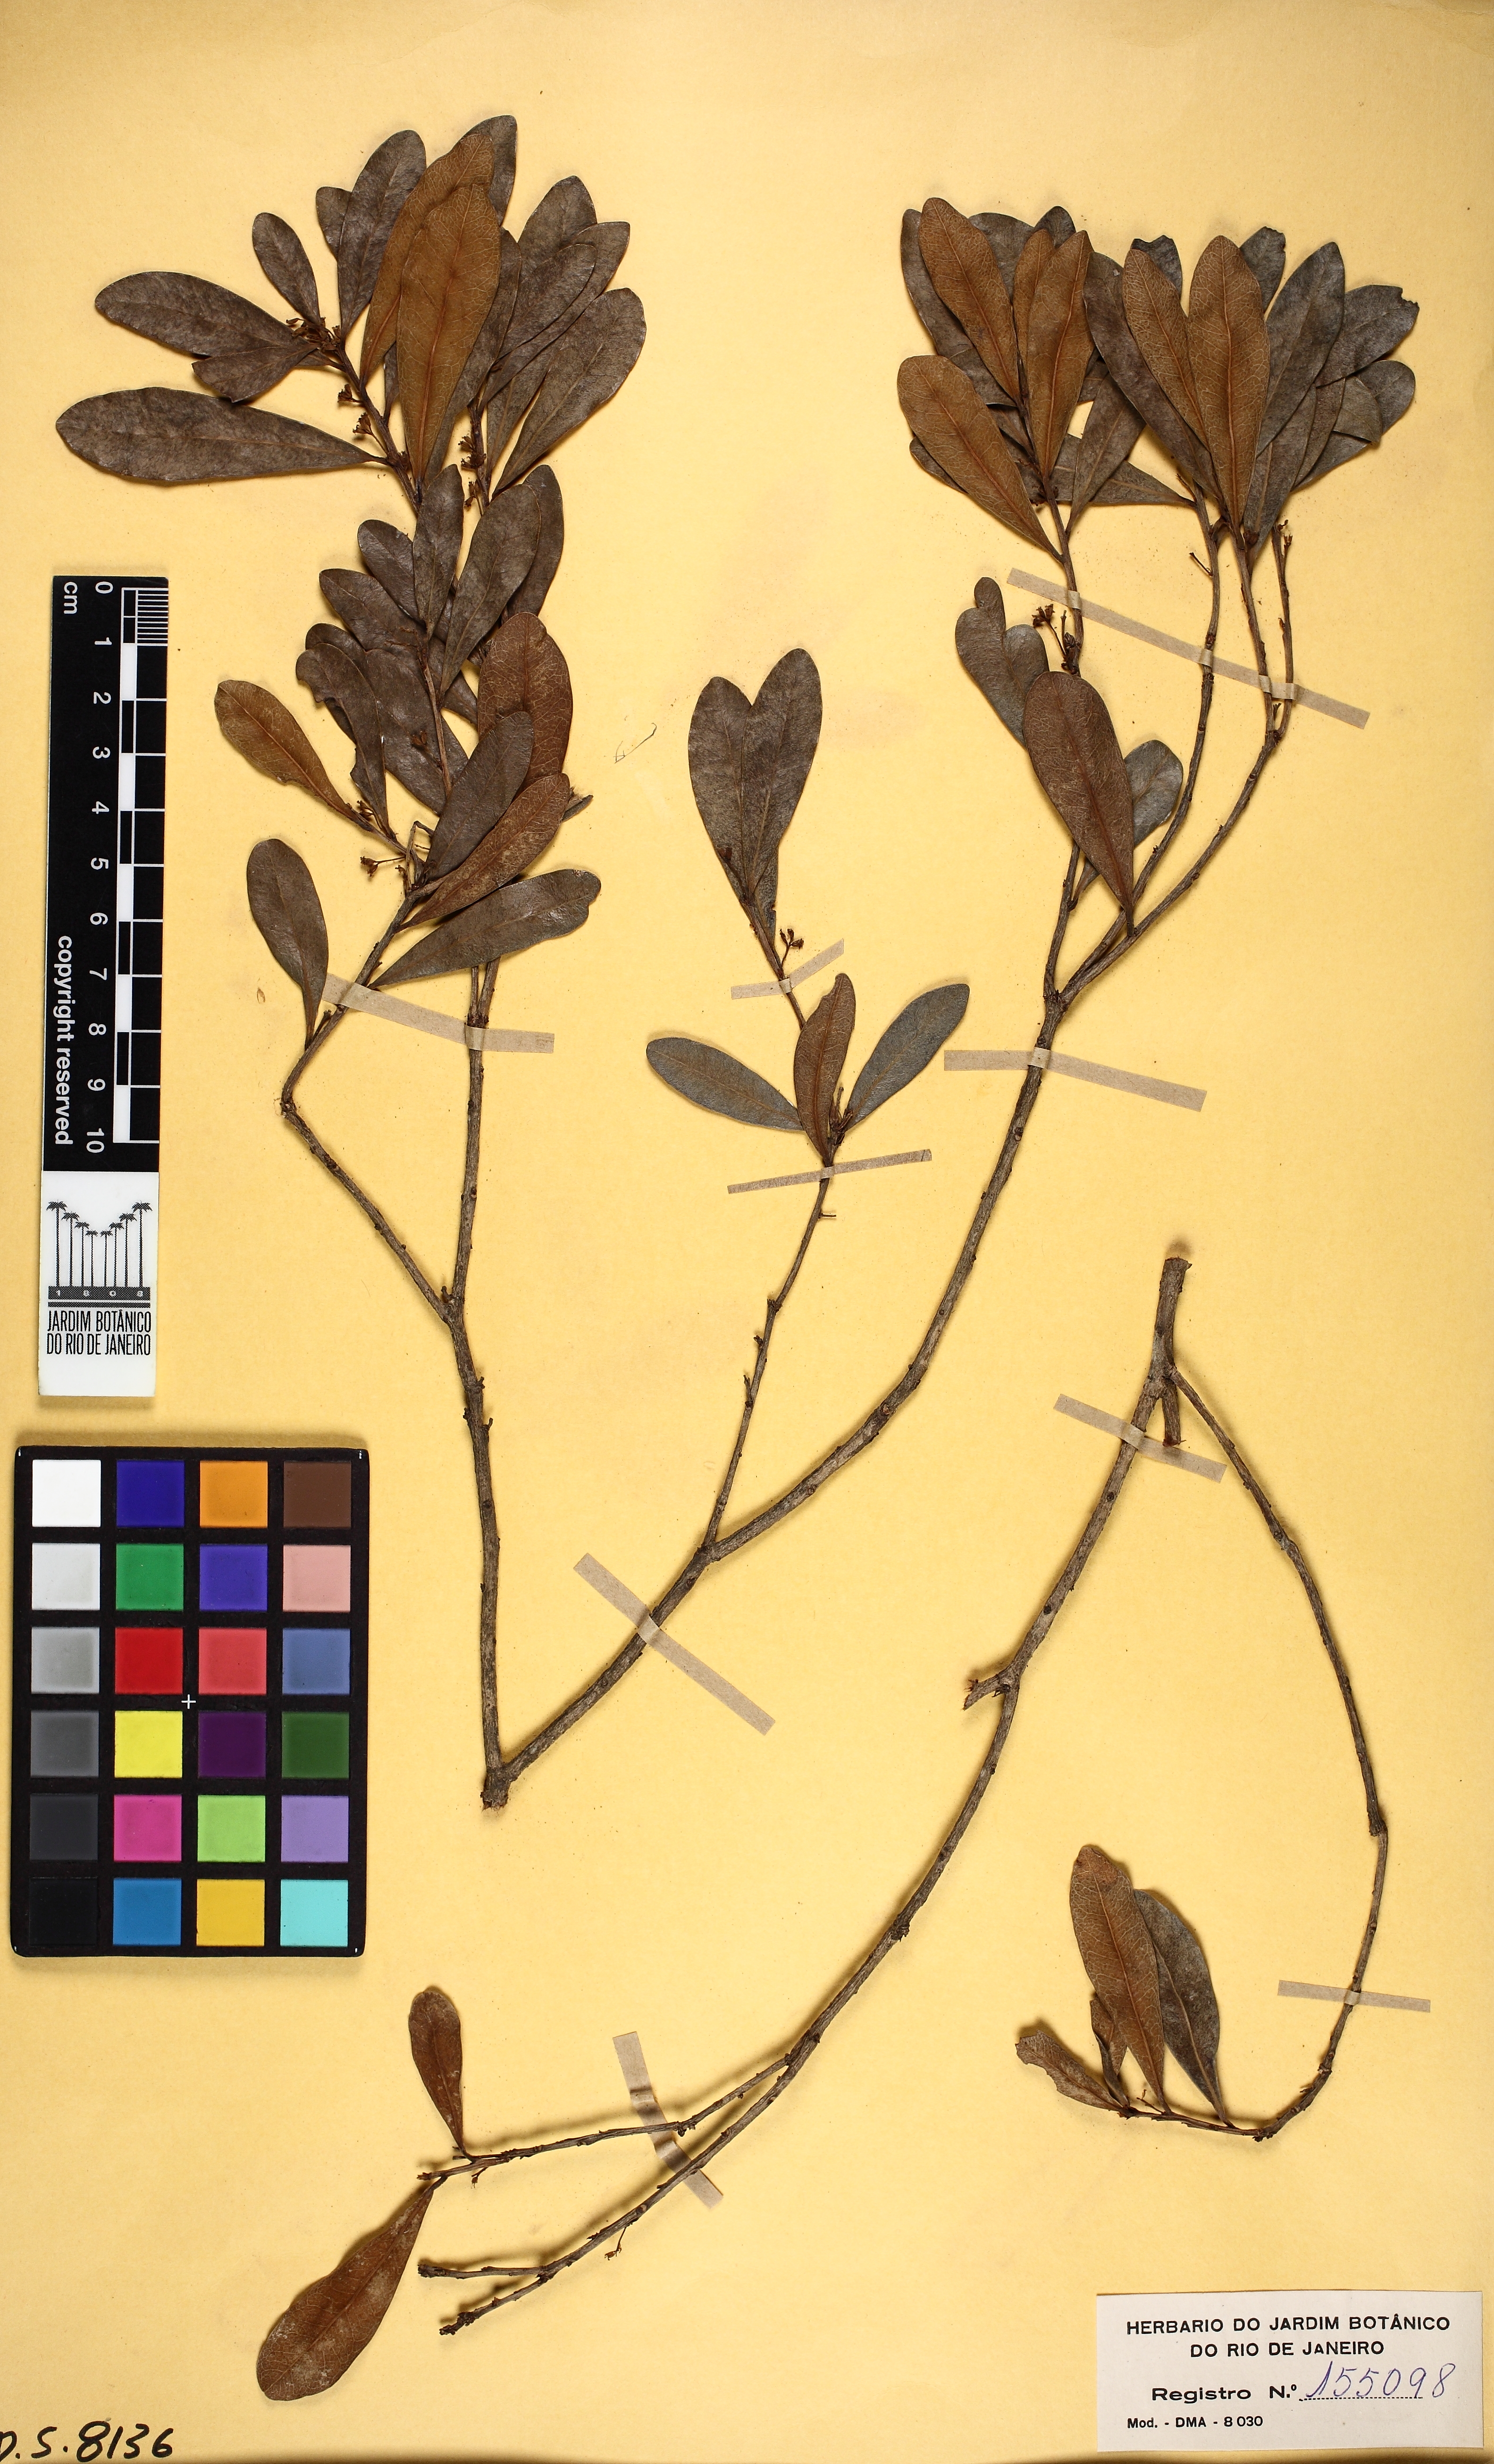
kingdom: Plantae
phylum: Tracheophyta
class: Magnoliopsida
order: Malvales
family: Thymelaeaceae
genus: Daphnopsis
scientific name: Daphnopsis utilis
